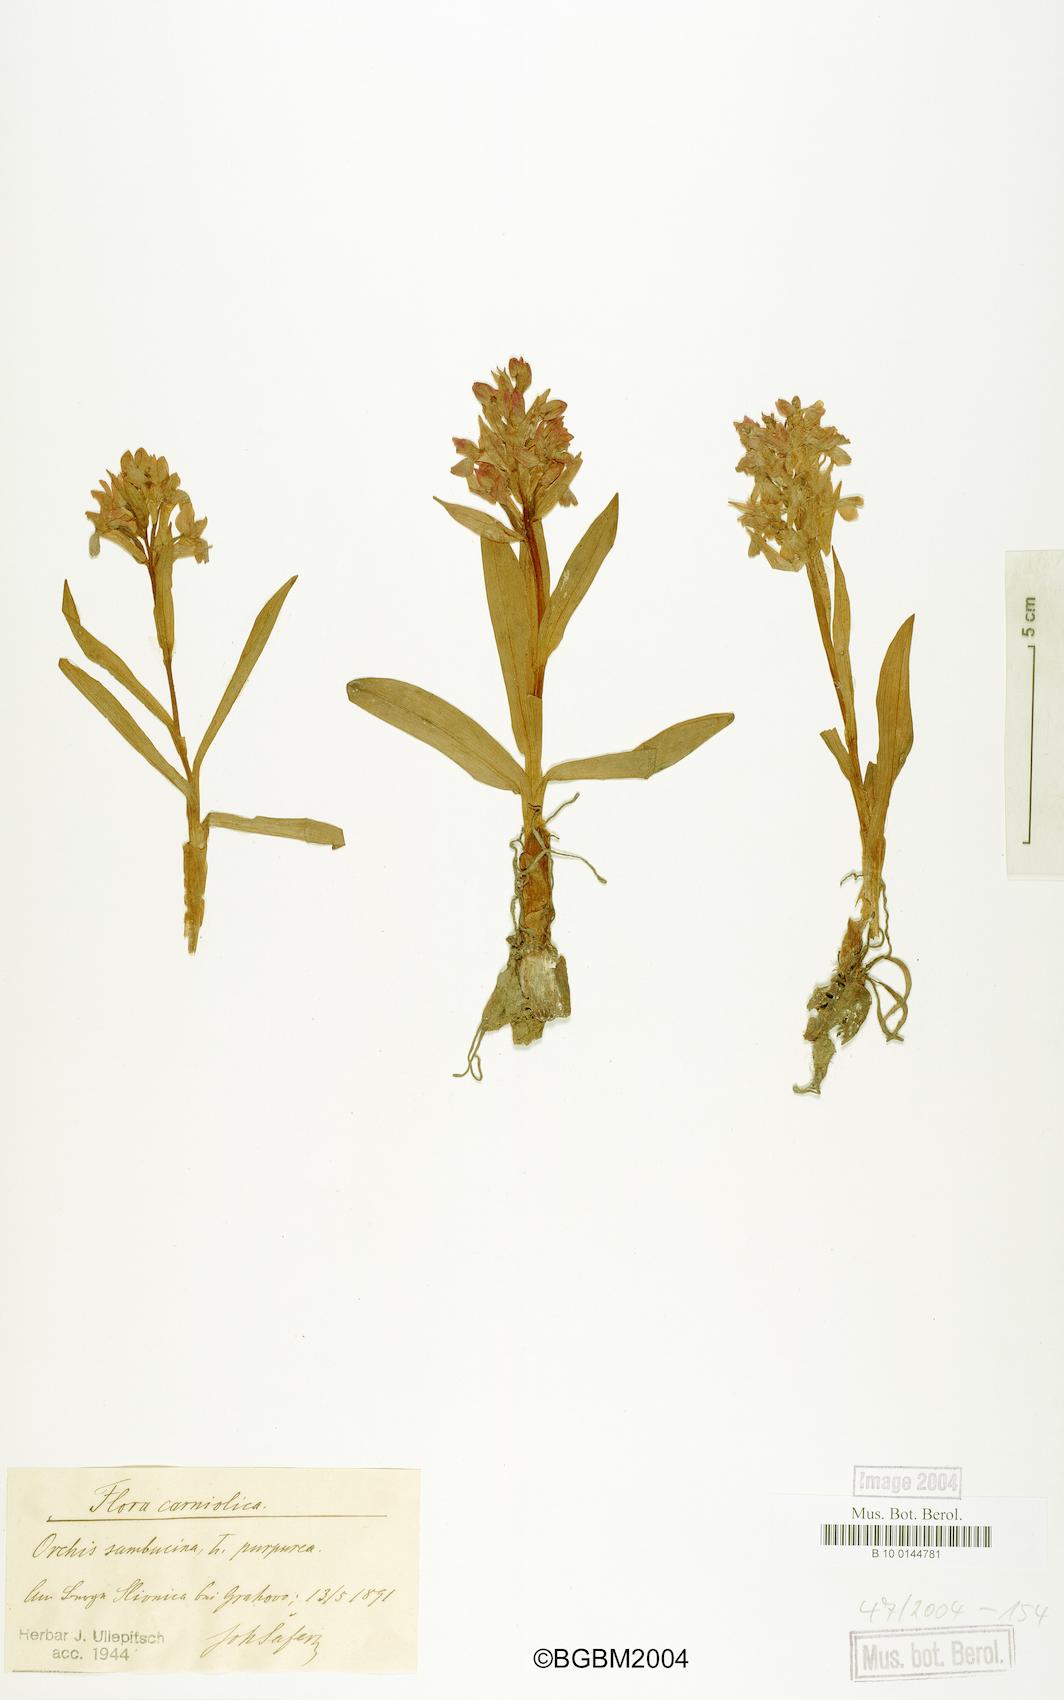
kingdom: Plantae
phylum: Tracheophyta
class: Liliopsida
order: Asparagales
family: Orchidaceae
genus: Dactylorhiza
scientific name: Dactylorhiza sambucina
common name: Elder-flowered orchid
